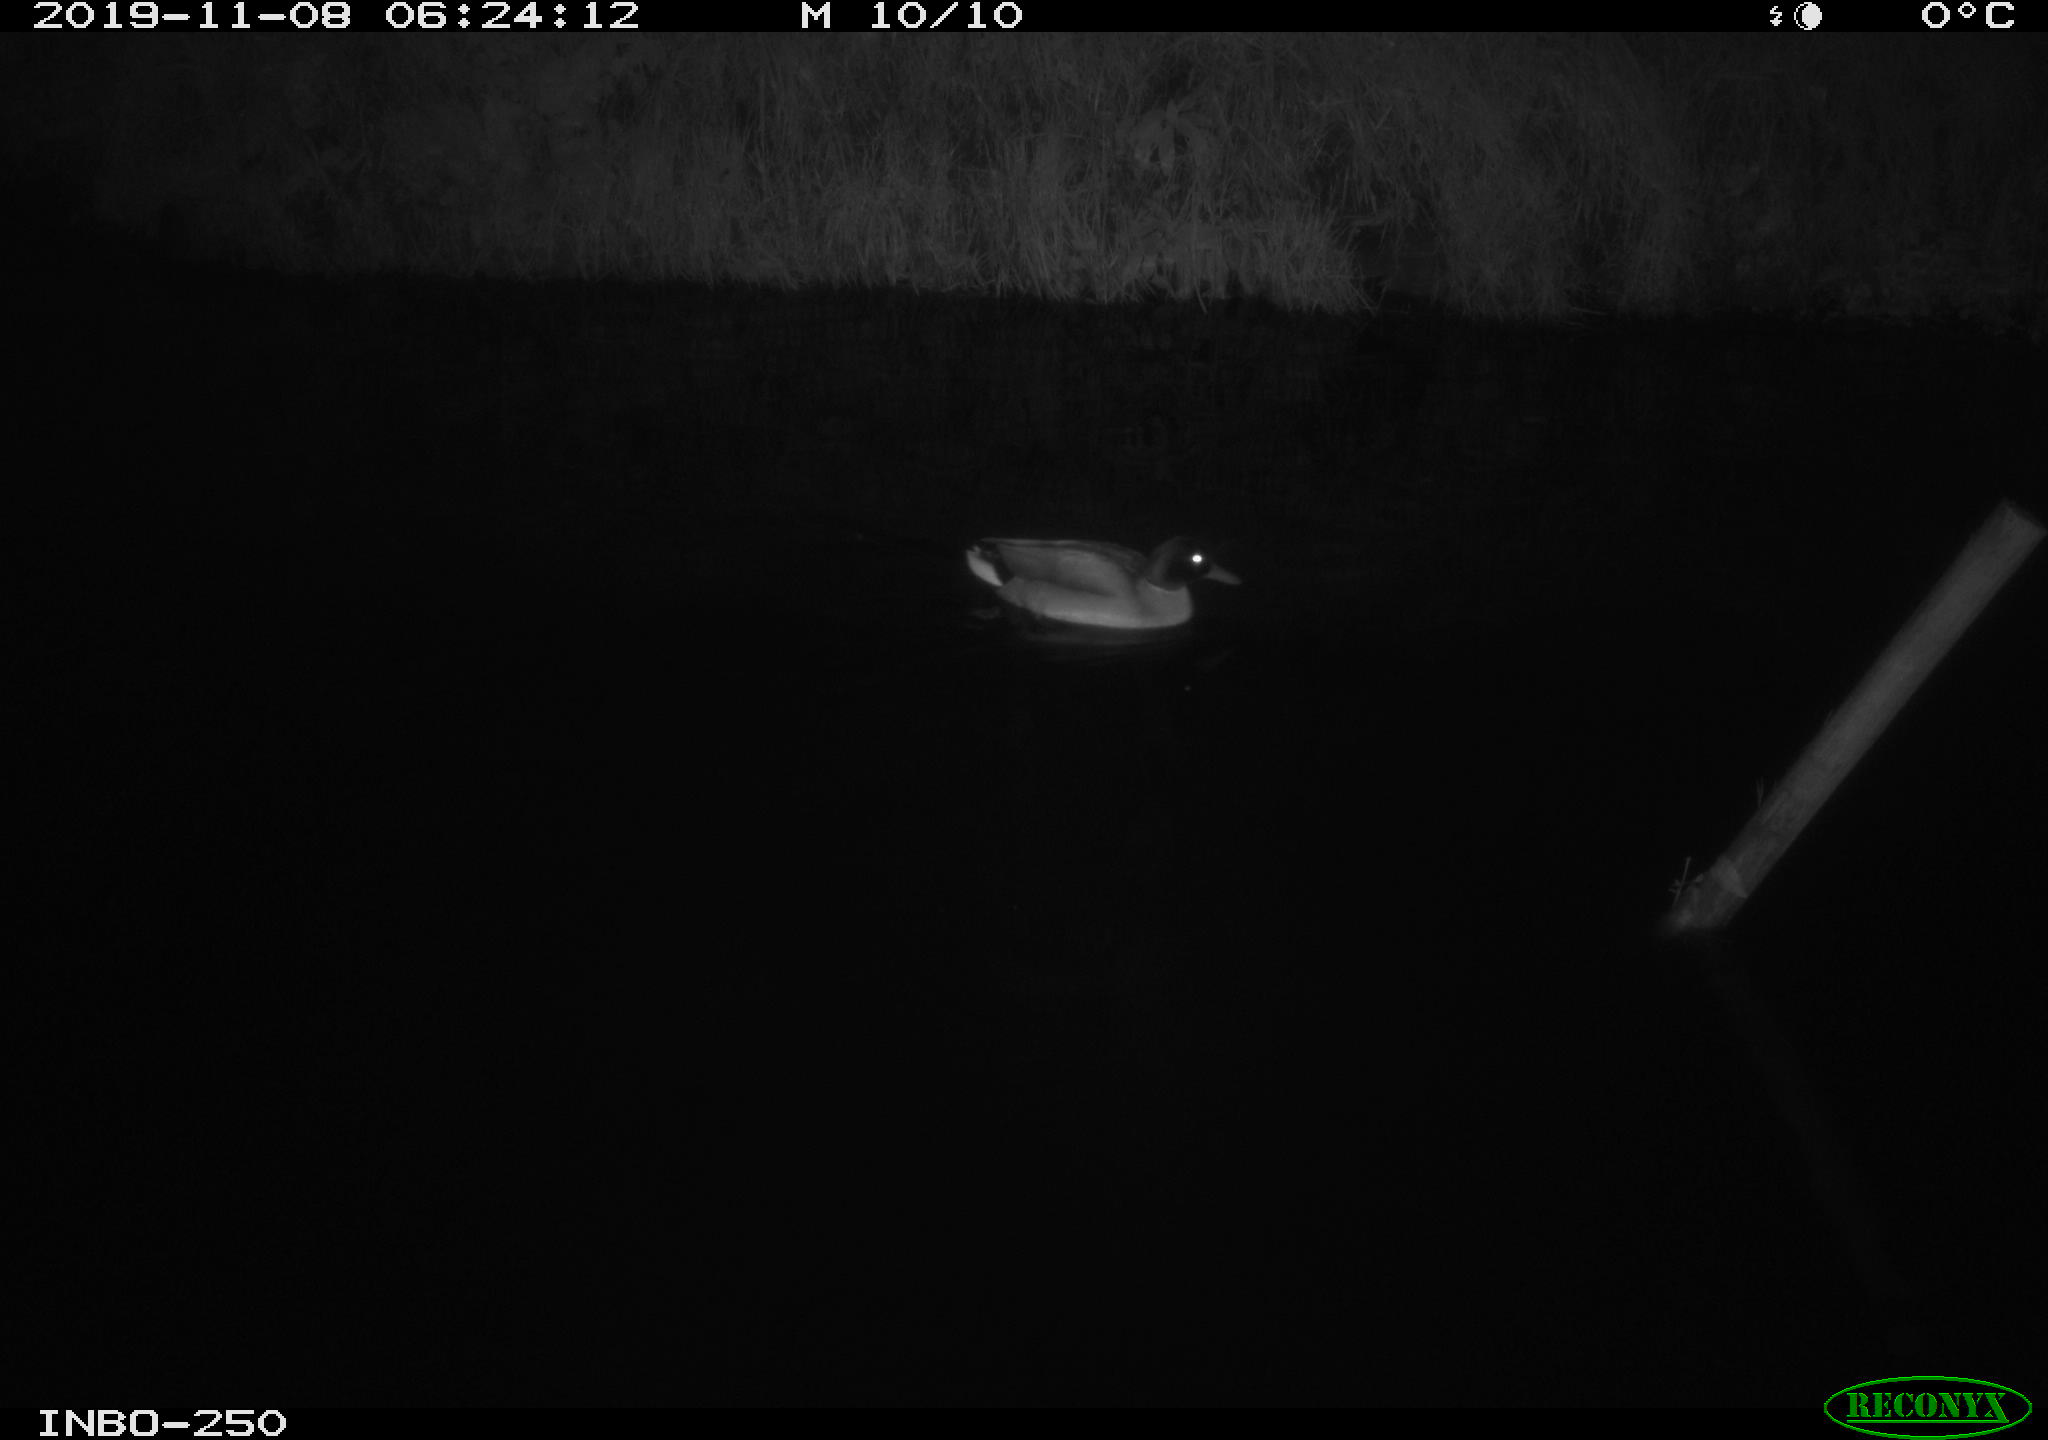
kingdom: Animalia
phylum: Chordata
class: Aves
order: Anseriformes
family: Anatidae
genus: Anas
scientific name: Anas platyrhynchos
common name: Mallard
